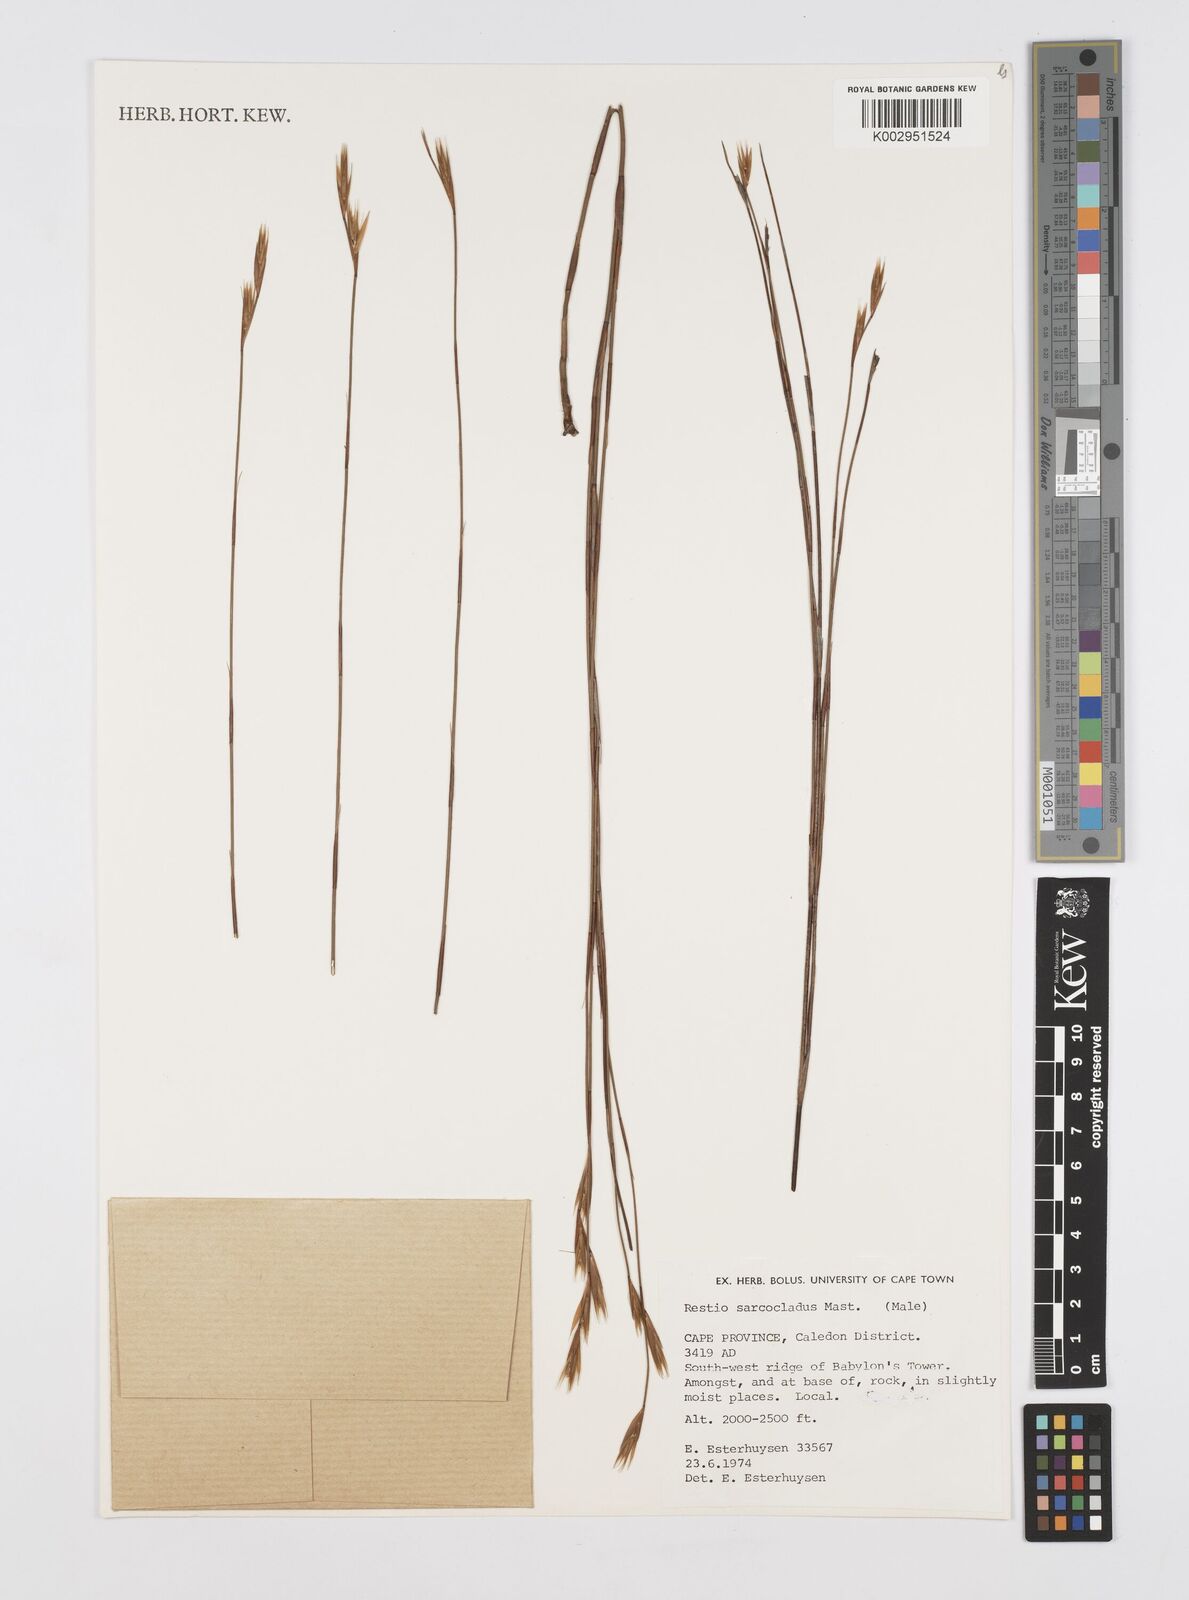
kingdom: Plantae
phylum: Tracheophyta
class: Liliopsida
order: Poales
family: Restionaceae
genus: Restio
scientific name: Restio saroclados
